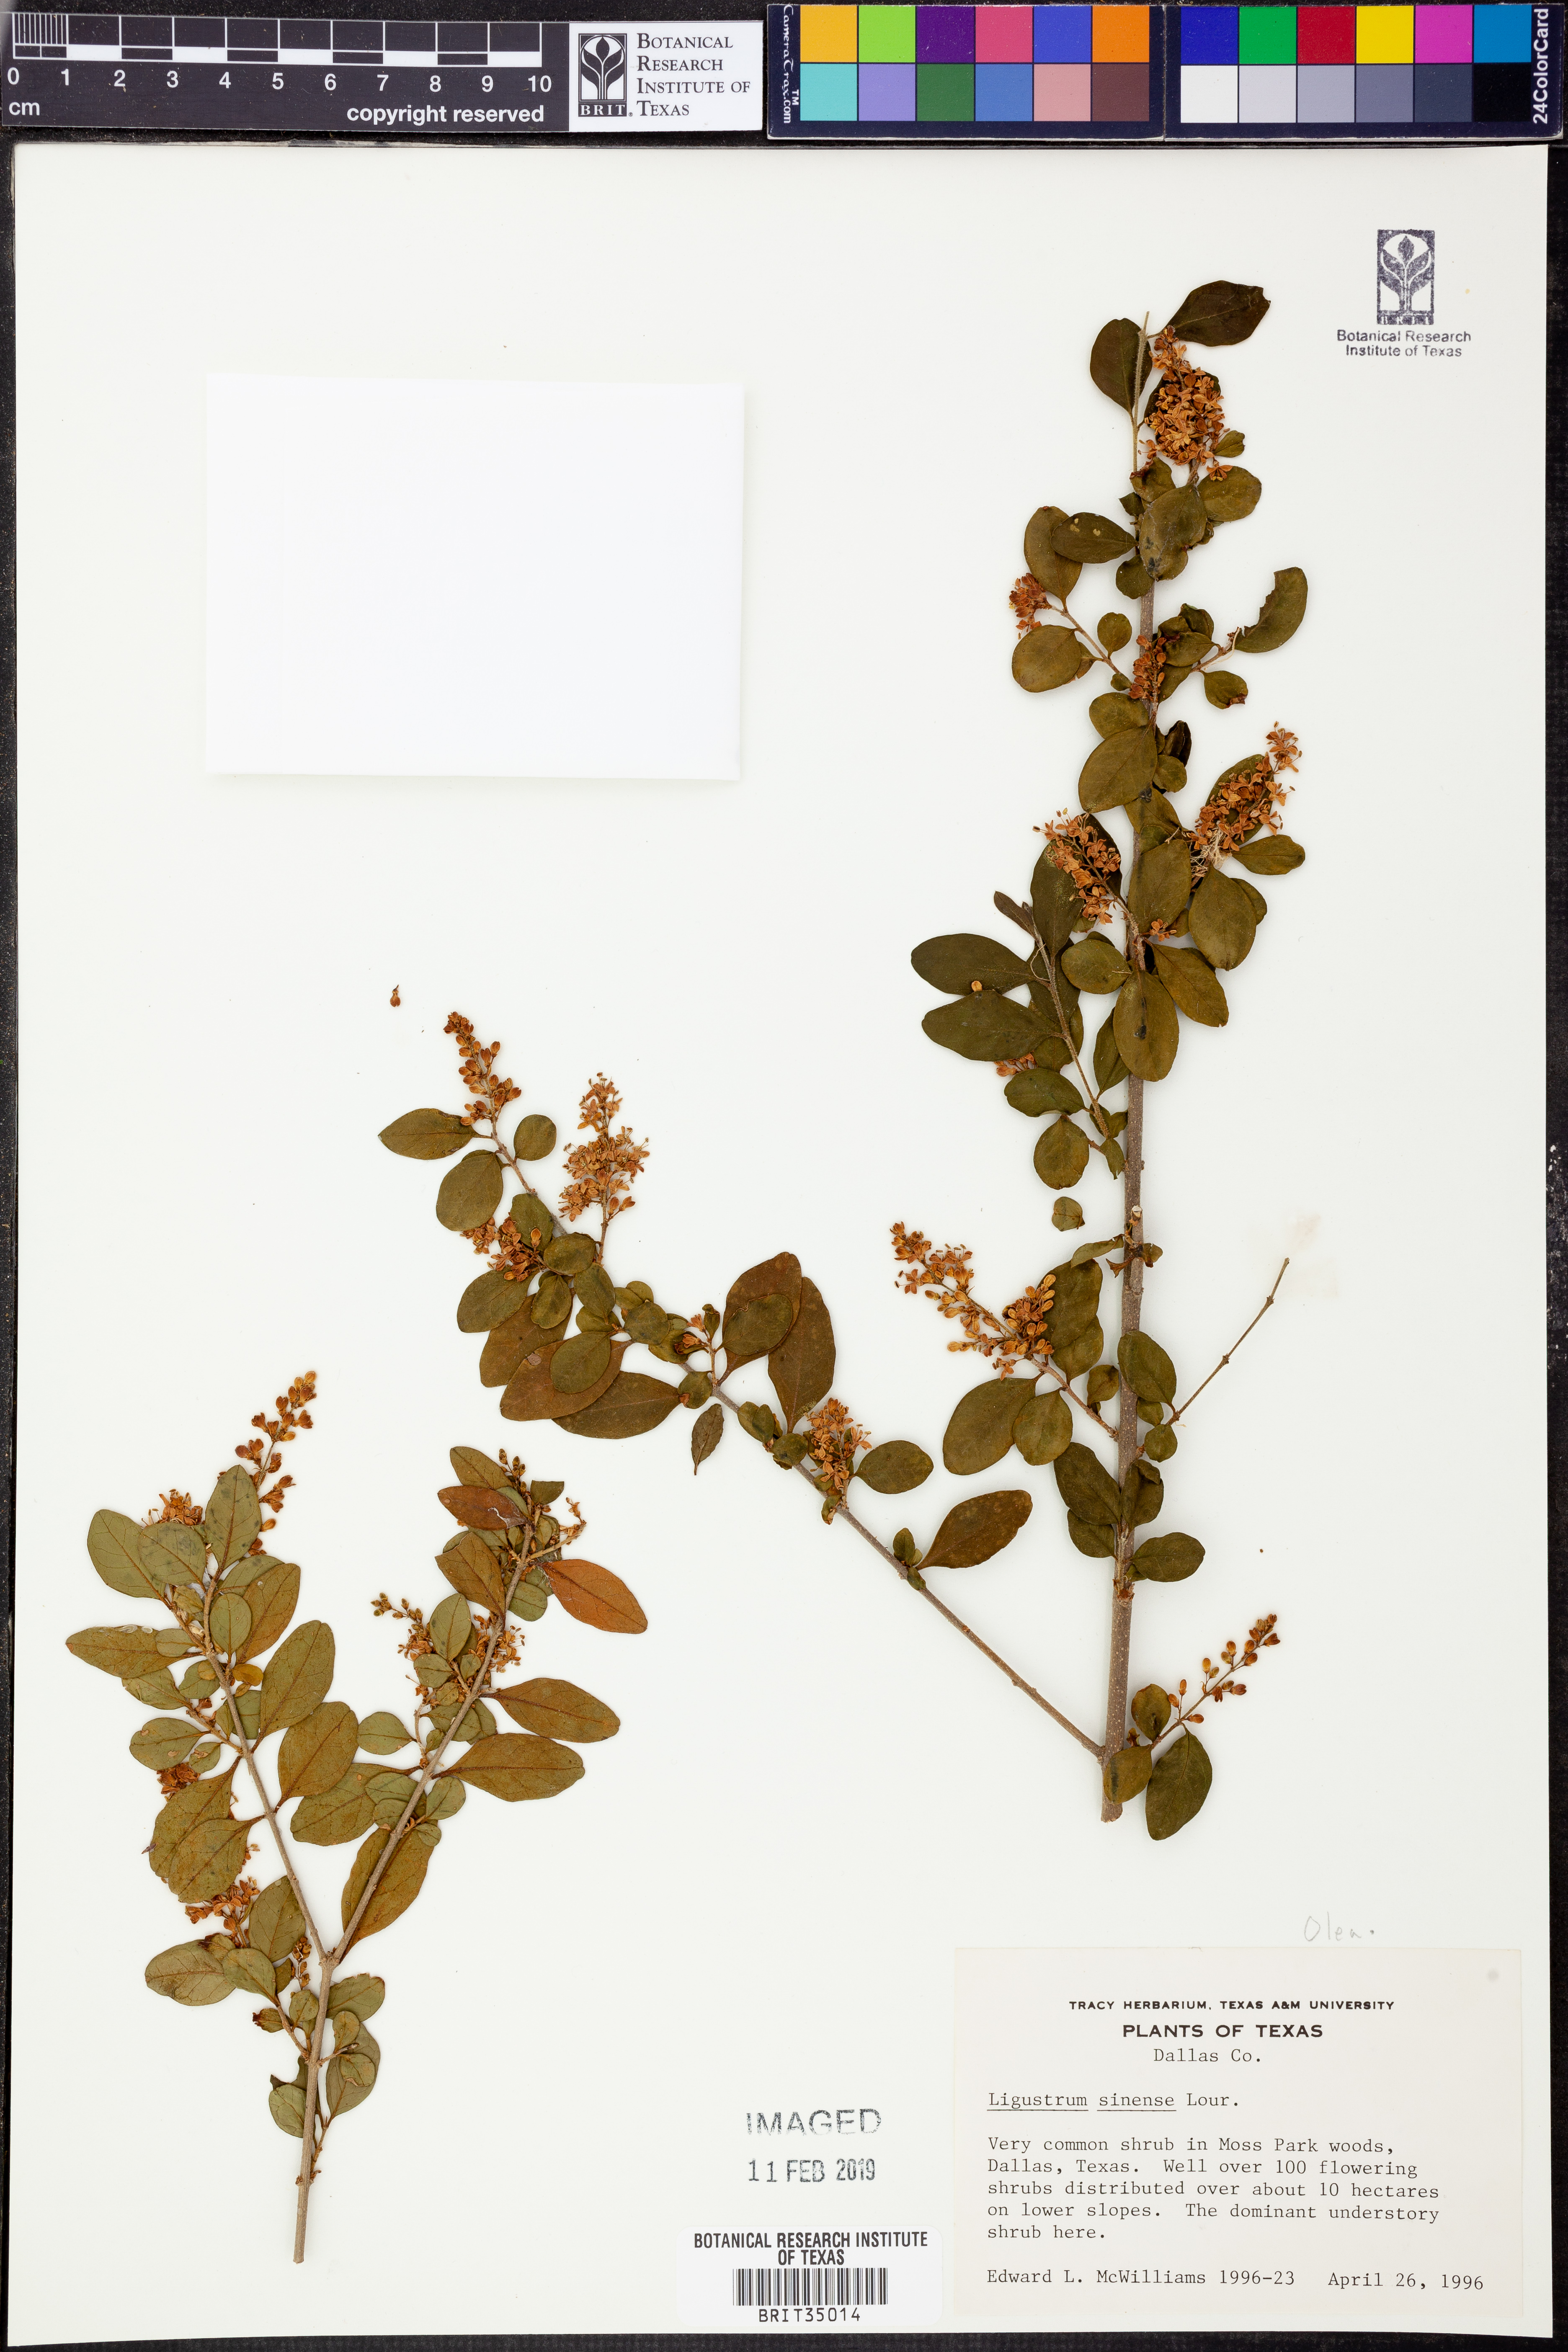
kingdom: Plantae
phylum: Tracheophyta
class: Magnoliopsida
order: Lamiales
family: Oleaceae
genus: Ligustrum
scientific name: Ligustrum sinense
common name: Chinese privet
